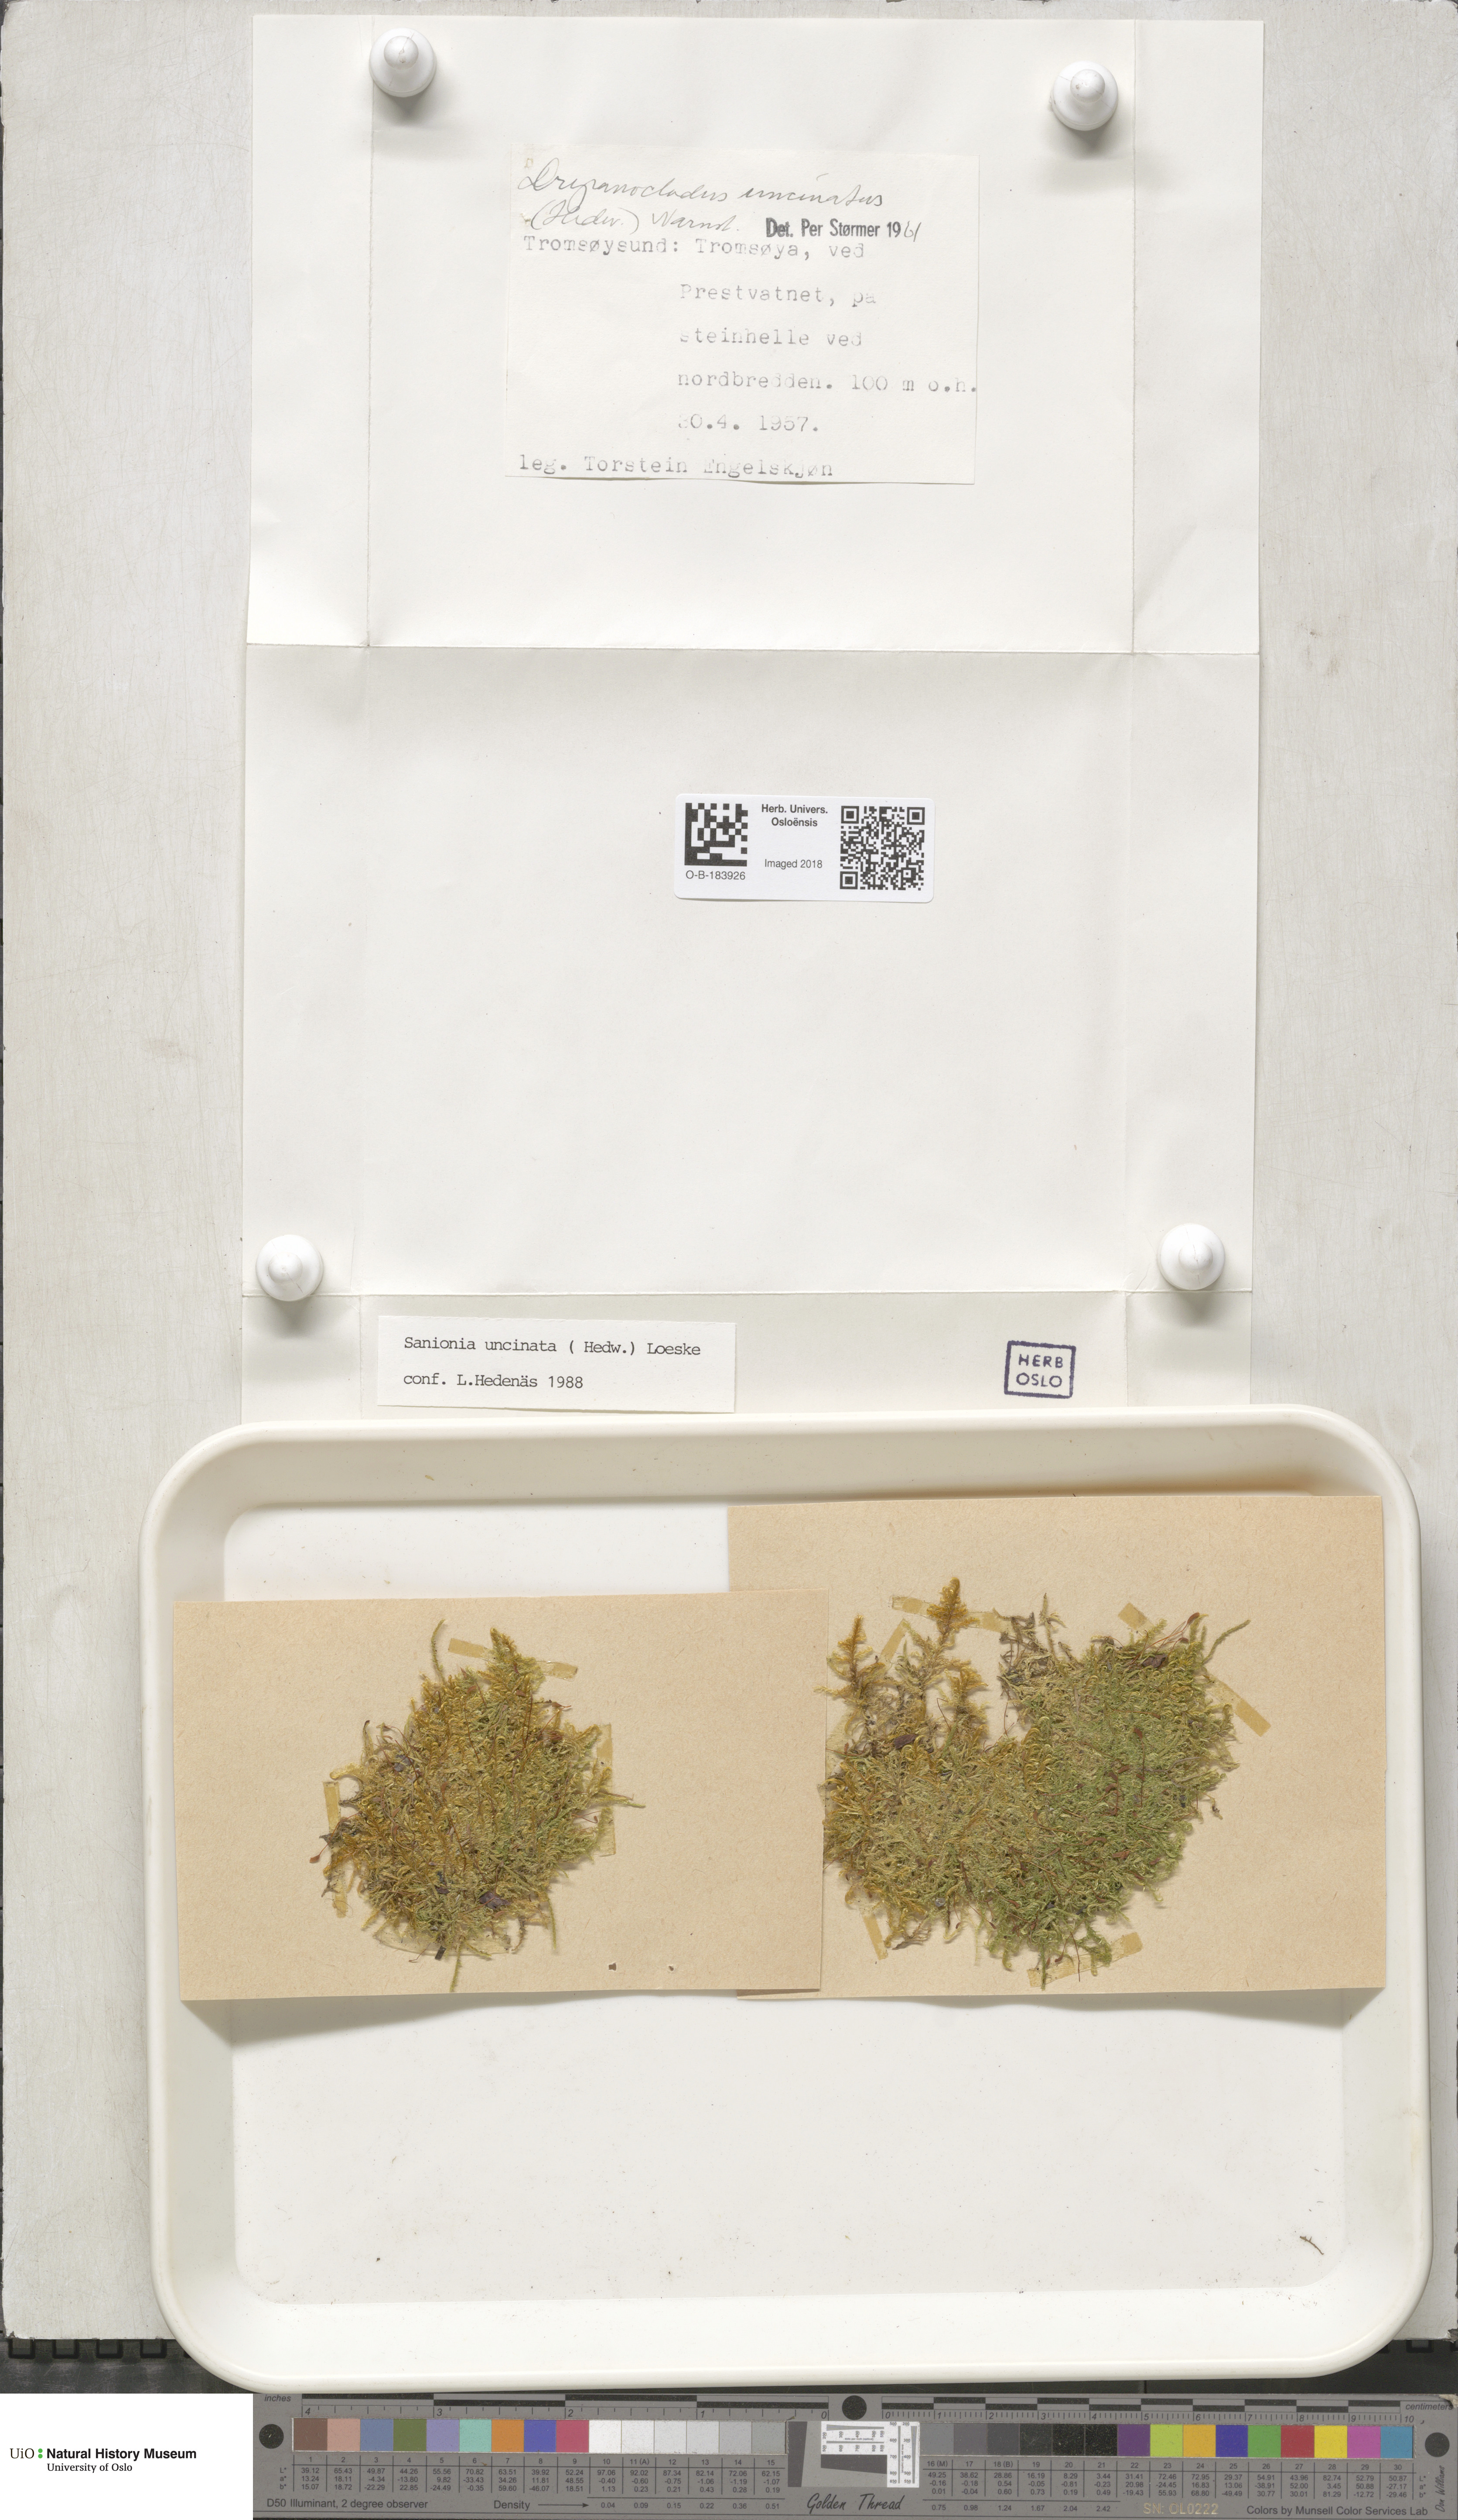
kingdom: Plantae
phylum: Bryophyta
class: Bryopsida
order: Hypnales
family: Scorpidiaceae
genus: Sanionia
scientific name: Sanionia uncinata
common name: Sickle moss
